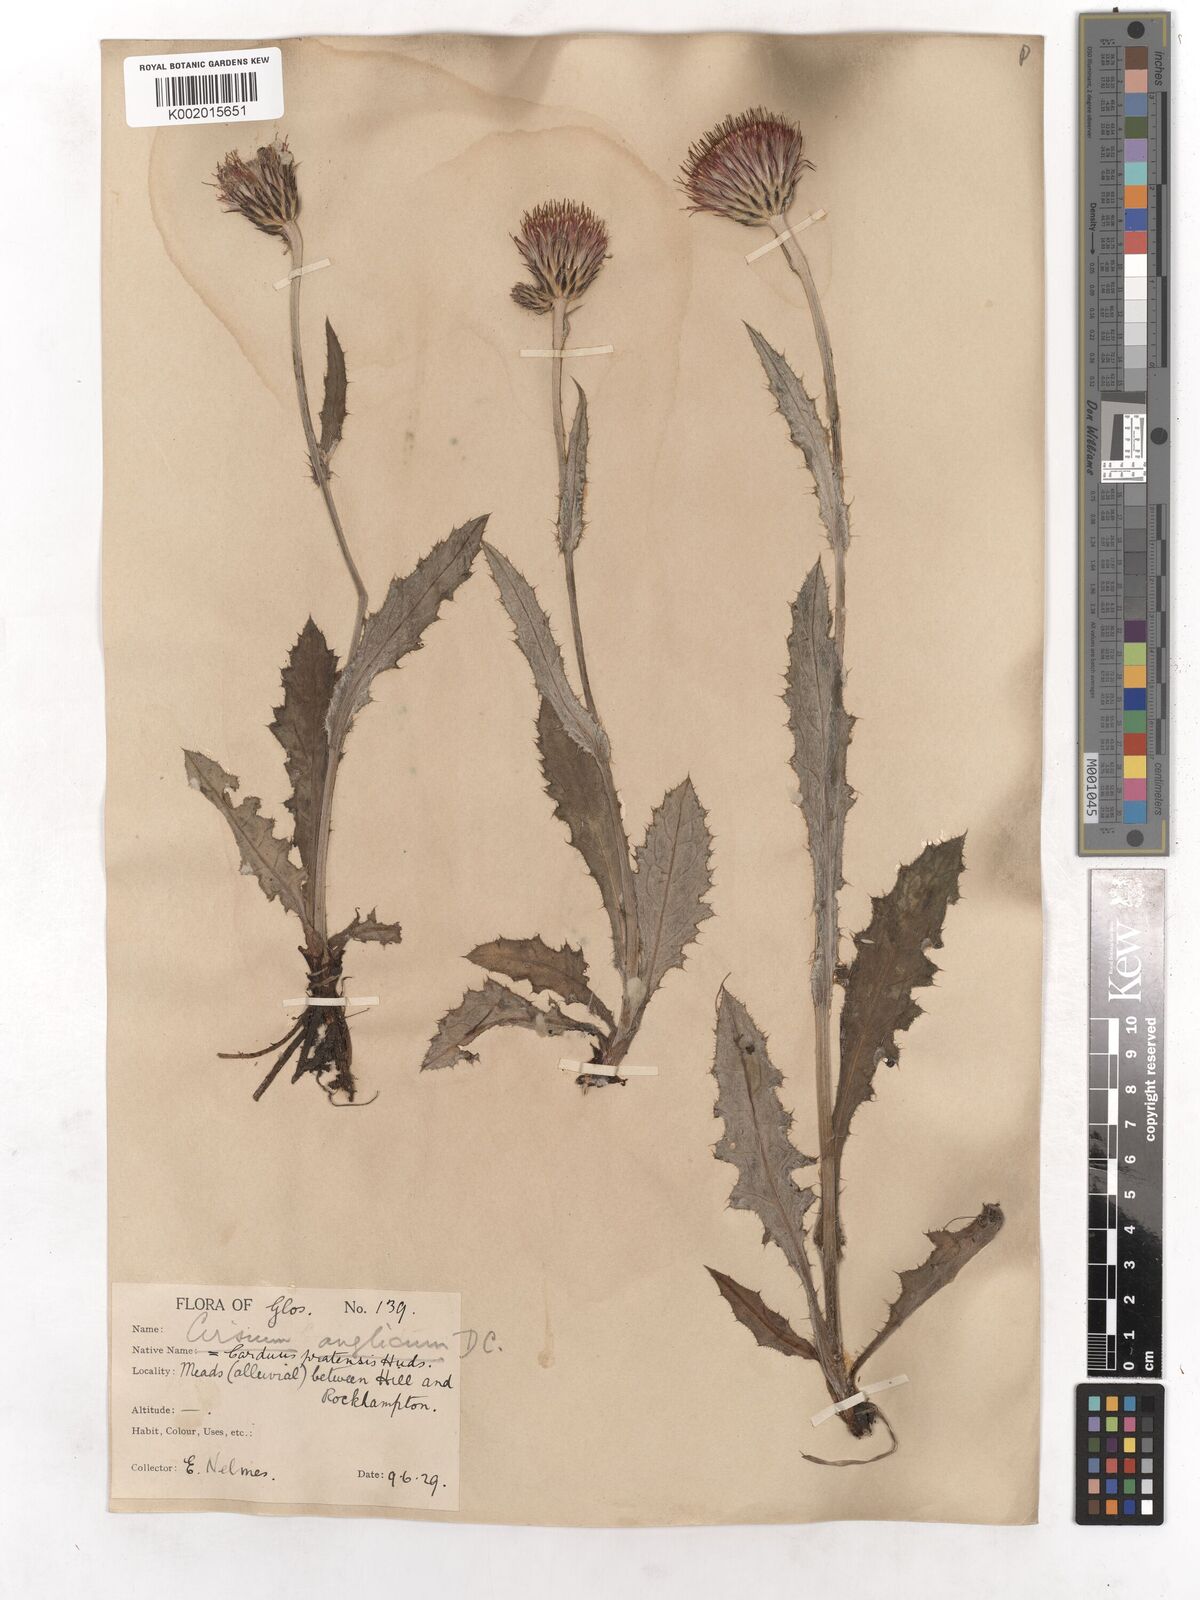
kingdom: Plantae
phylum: Tracheophyta
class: Magnoliopsida
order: Asterales
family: Asteraceae
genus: Cirsium
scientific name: Cirsium dissectum
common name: Meadow thistle
